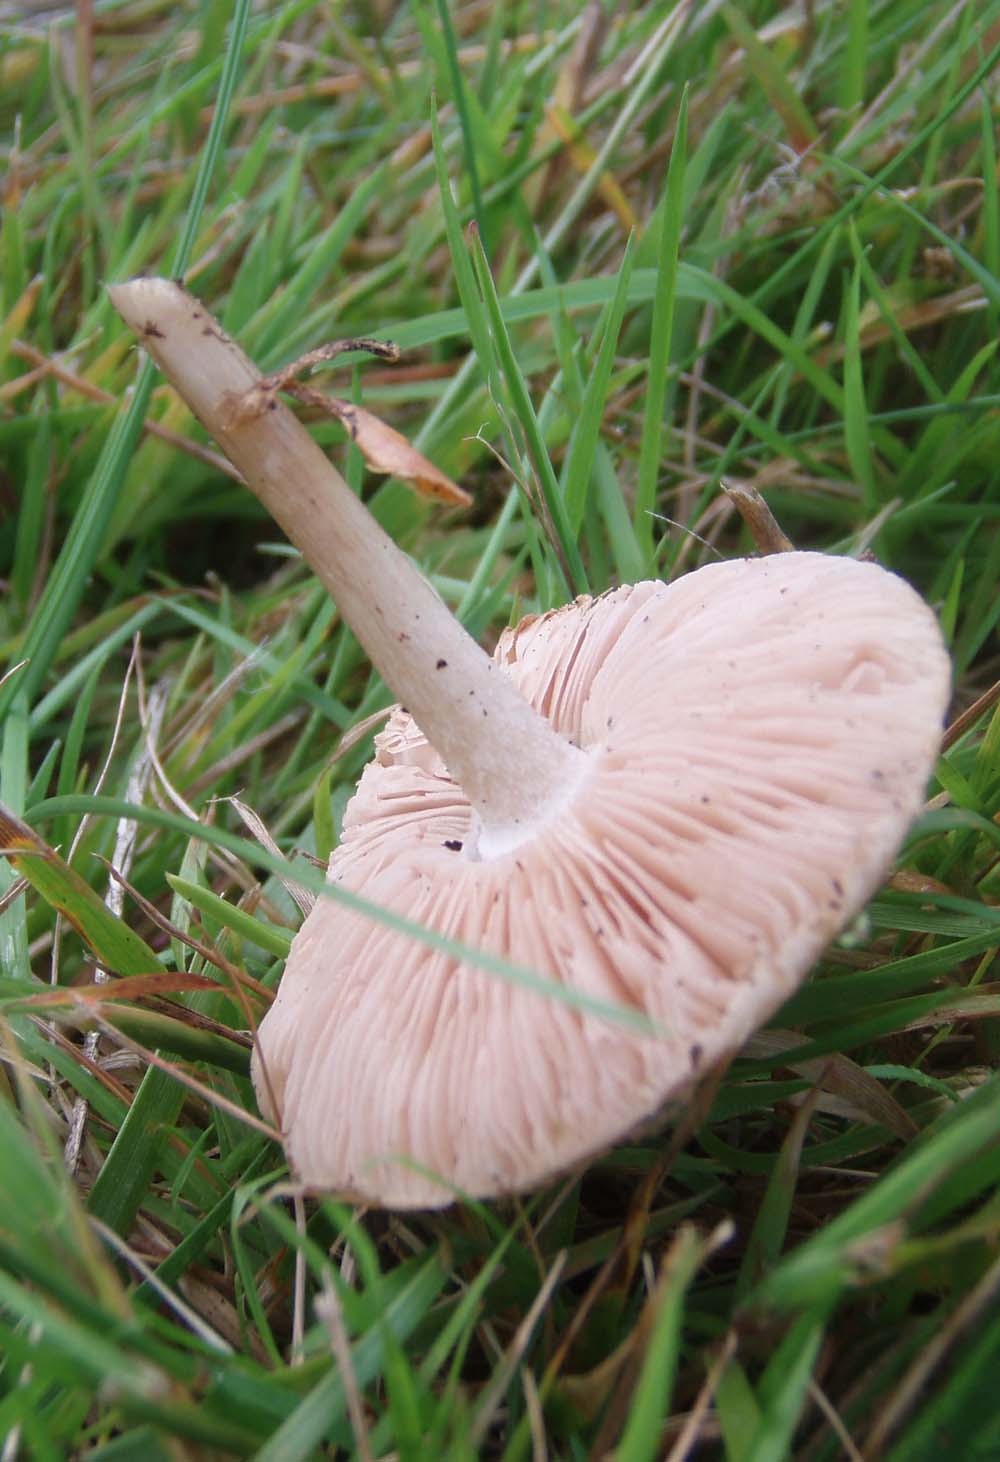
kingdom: Fungi
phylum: Basidiomycota
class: Agaricomycetes
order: Agaricales
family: Pluteaceae
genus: Pluteus
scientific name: Pluteus cervinus
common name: sodfarvet skærmhat
